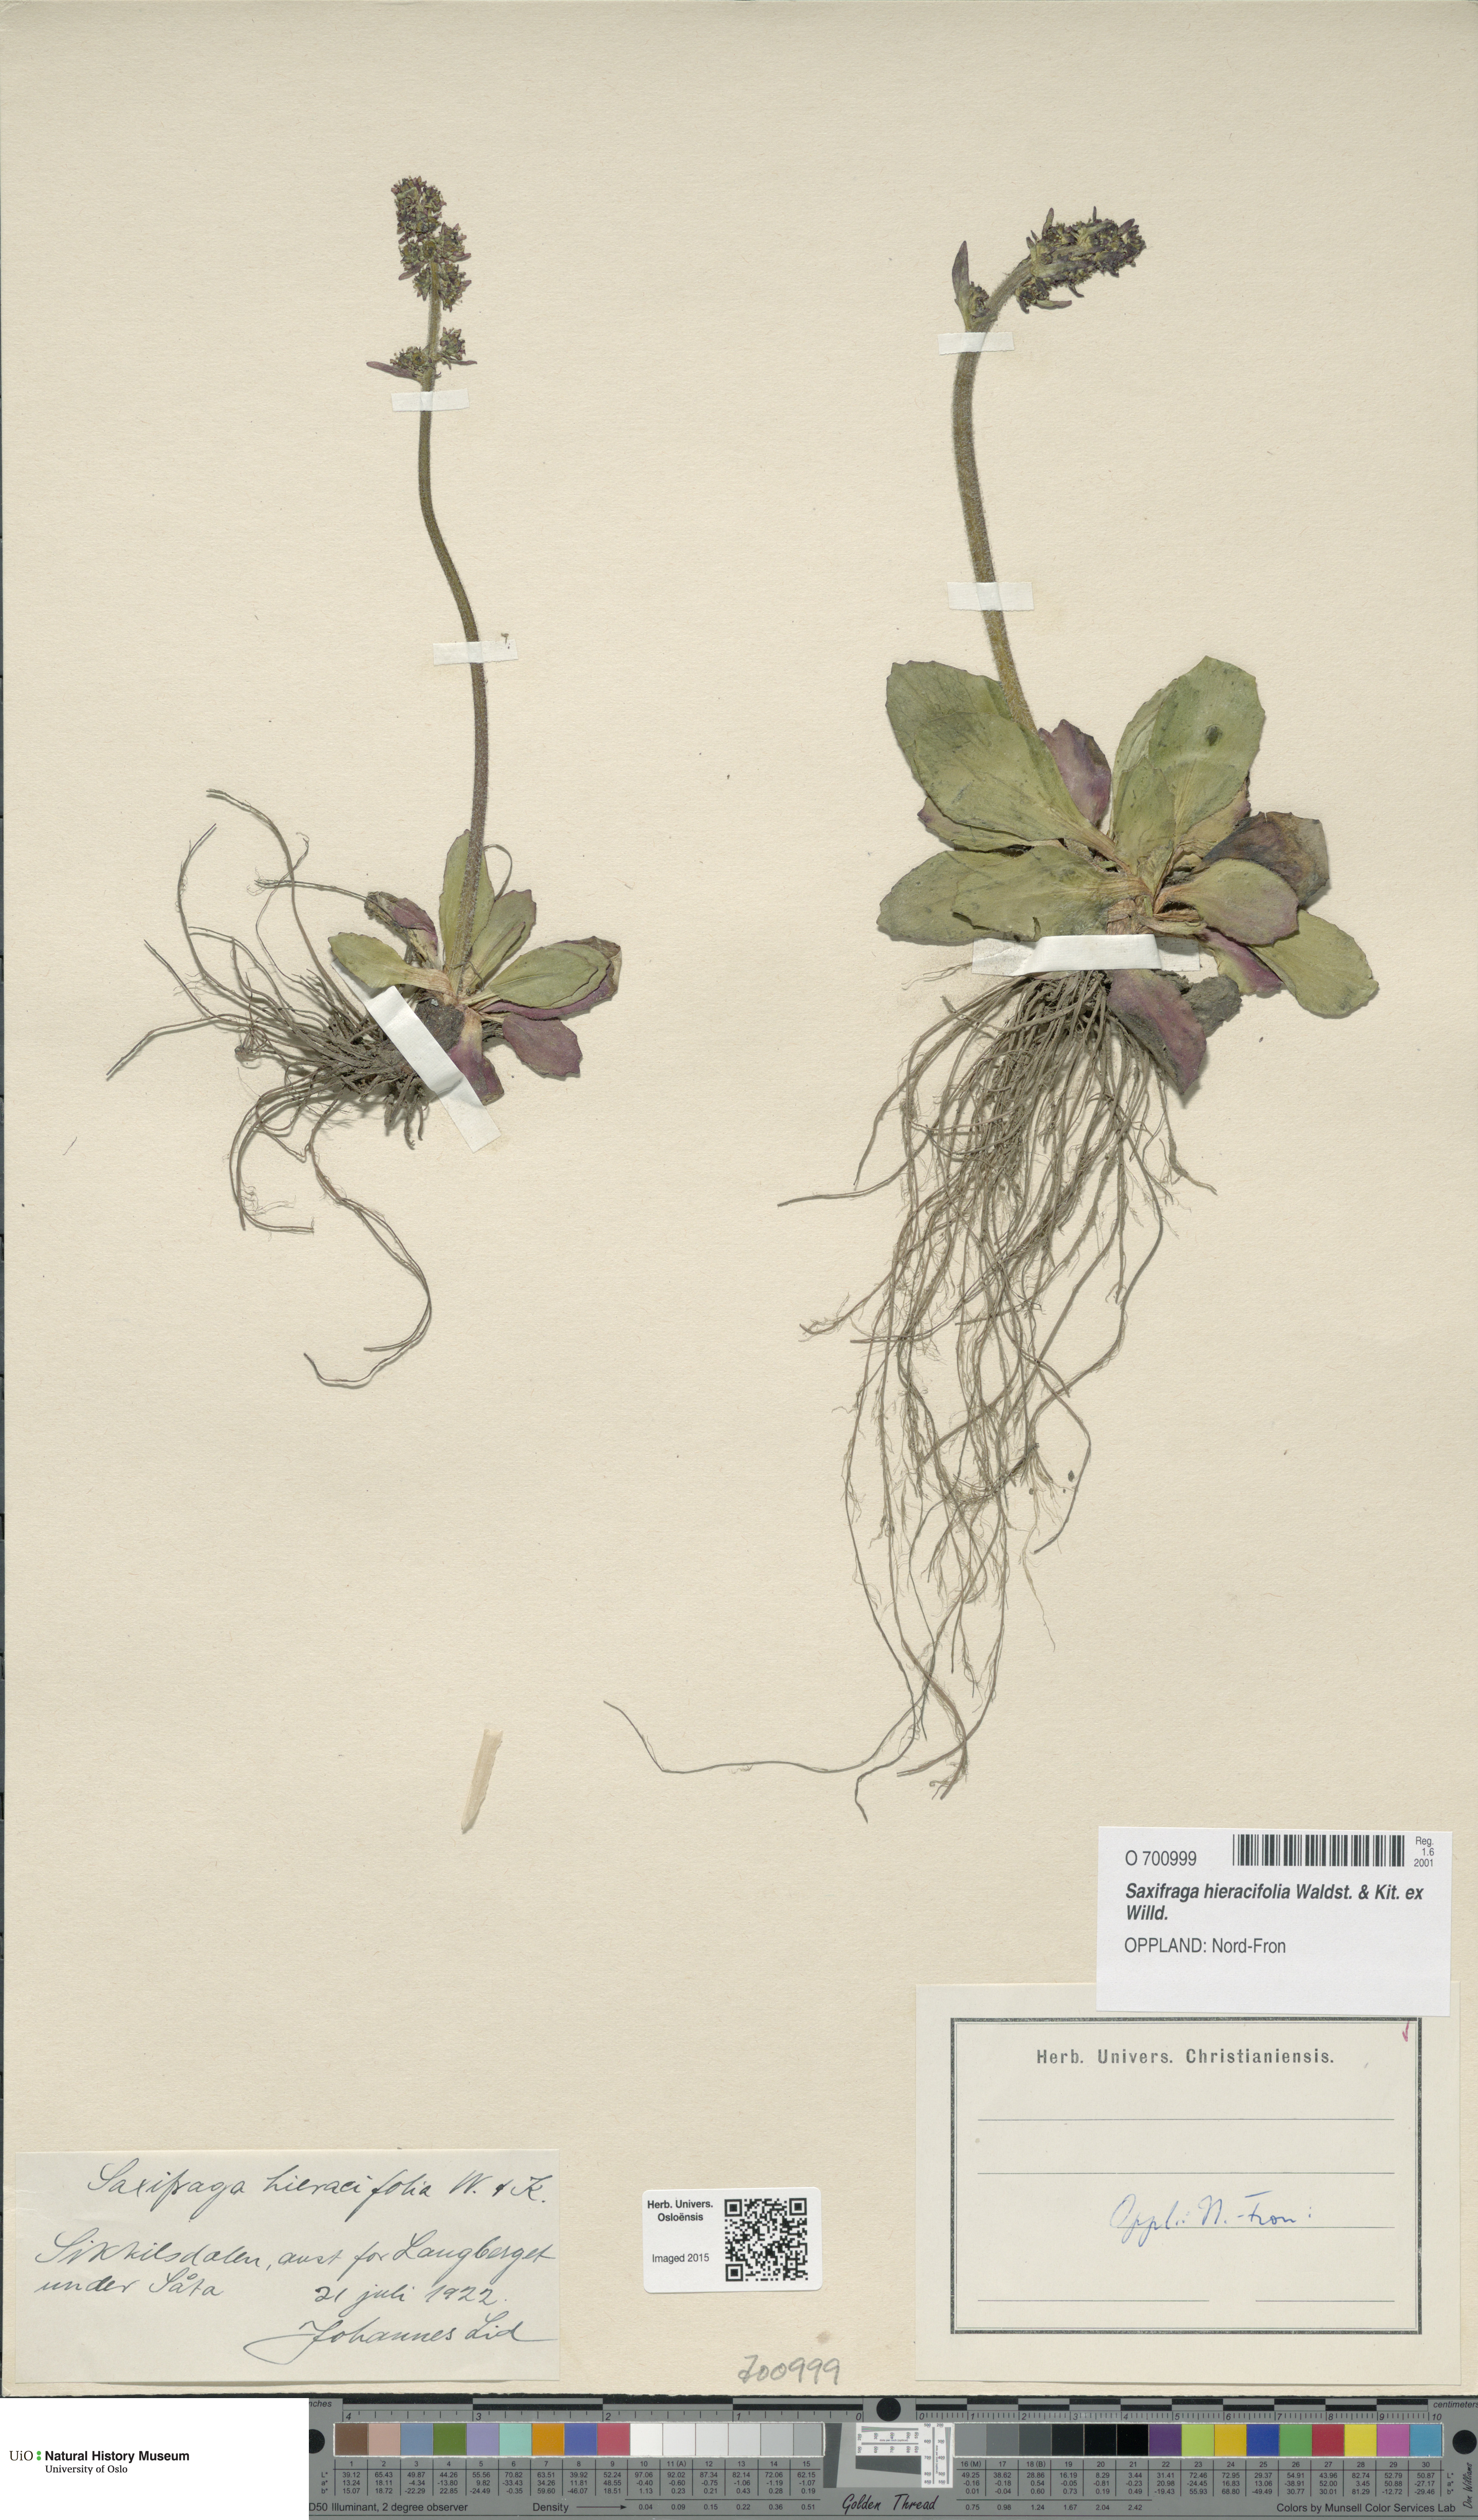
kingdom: Plantae
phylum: Tracheophyta
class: Magnoliopsida
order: Saxifragales
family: Saxifragaceae
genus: Micranthes
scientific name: Micranthes hieraciifolia
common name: Hawkweed-leaved saxifrage
